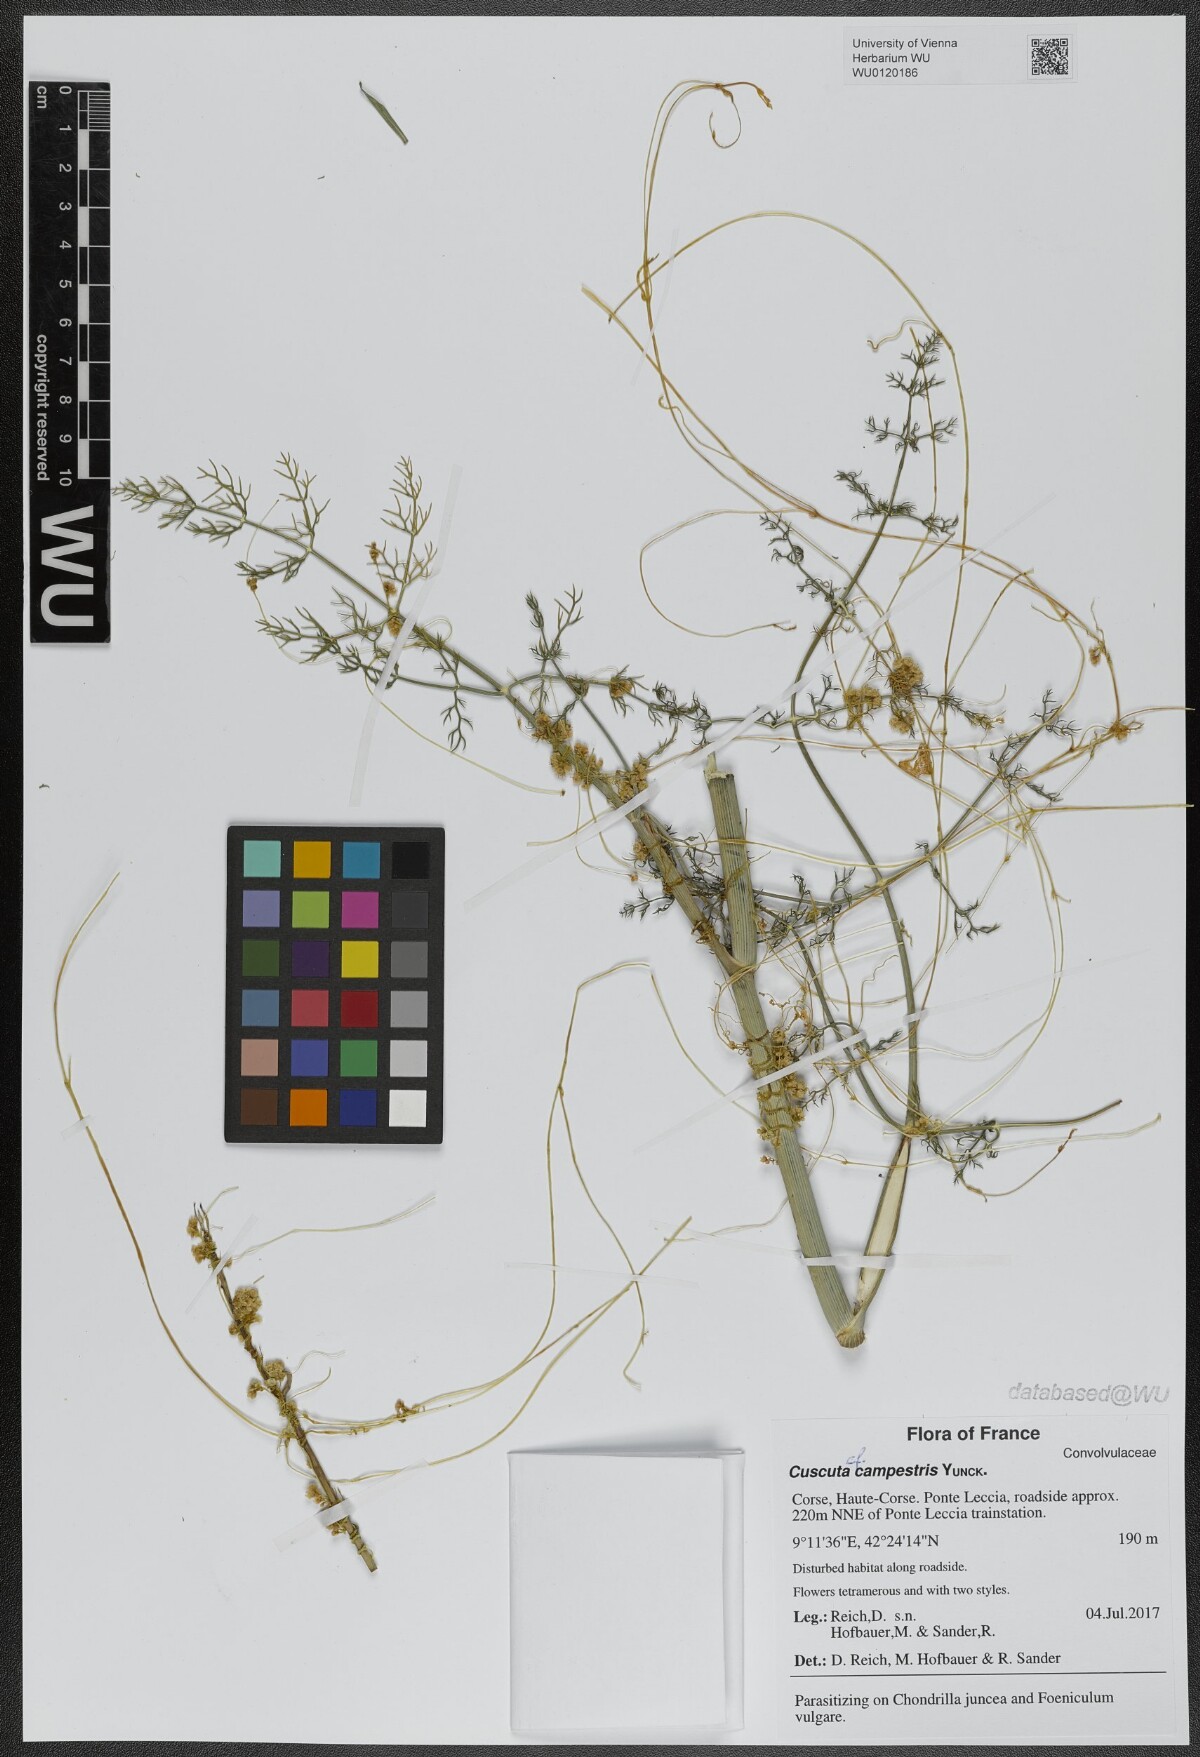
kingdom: Plantae
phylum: Tracheophyta
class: Magnoliopsida
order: Solanales
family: Convolvulaceae
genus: Cuscuta
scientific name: Cuscuta campestris
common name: Yellow dodder
